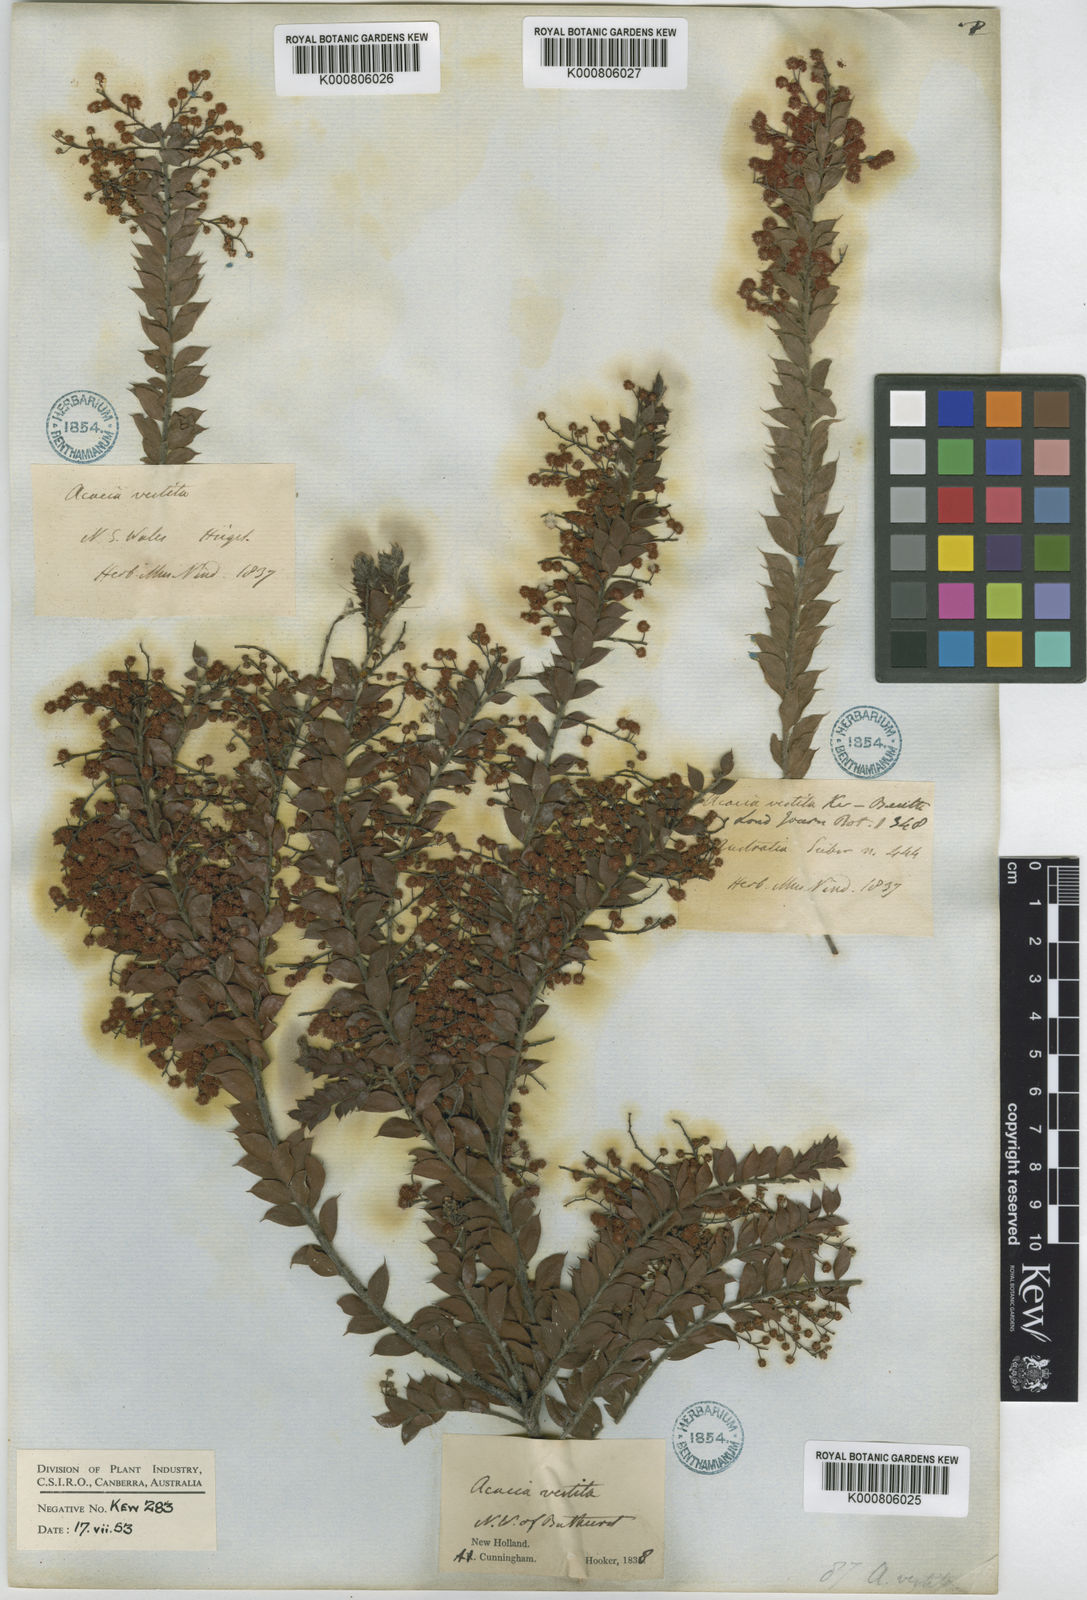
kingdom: Plantae
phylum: Tracheophyta
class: Magnoliopsida
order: Fabales
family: Fabaceae
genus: Acacia
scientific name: Acacia vestita
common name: Hairy wattle
